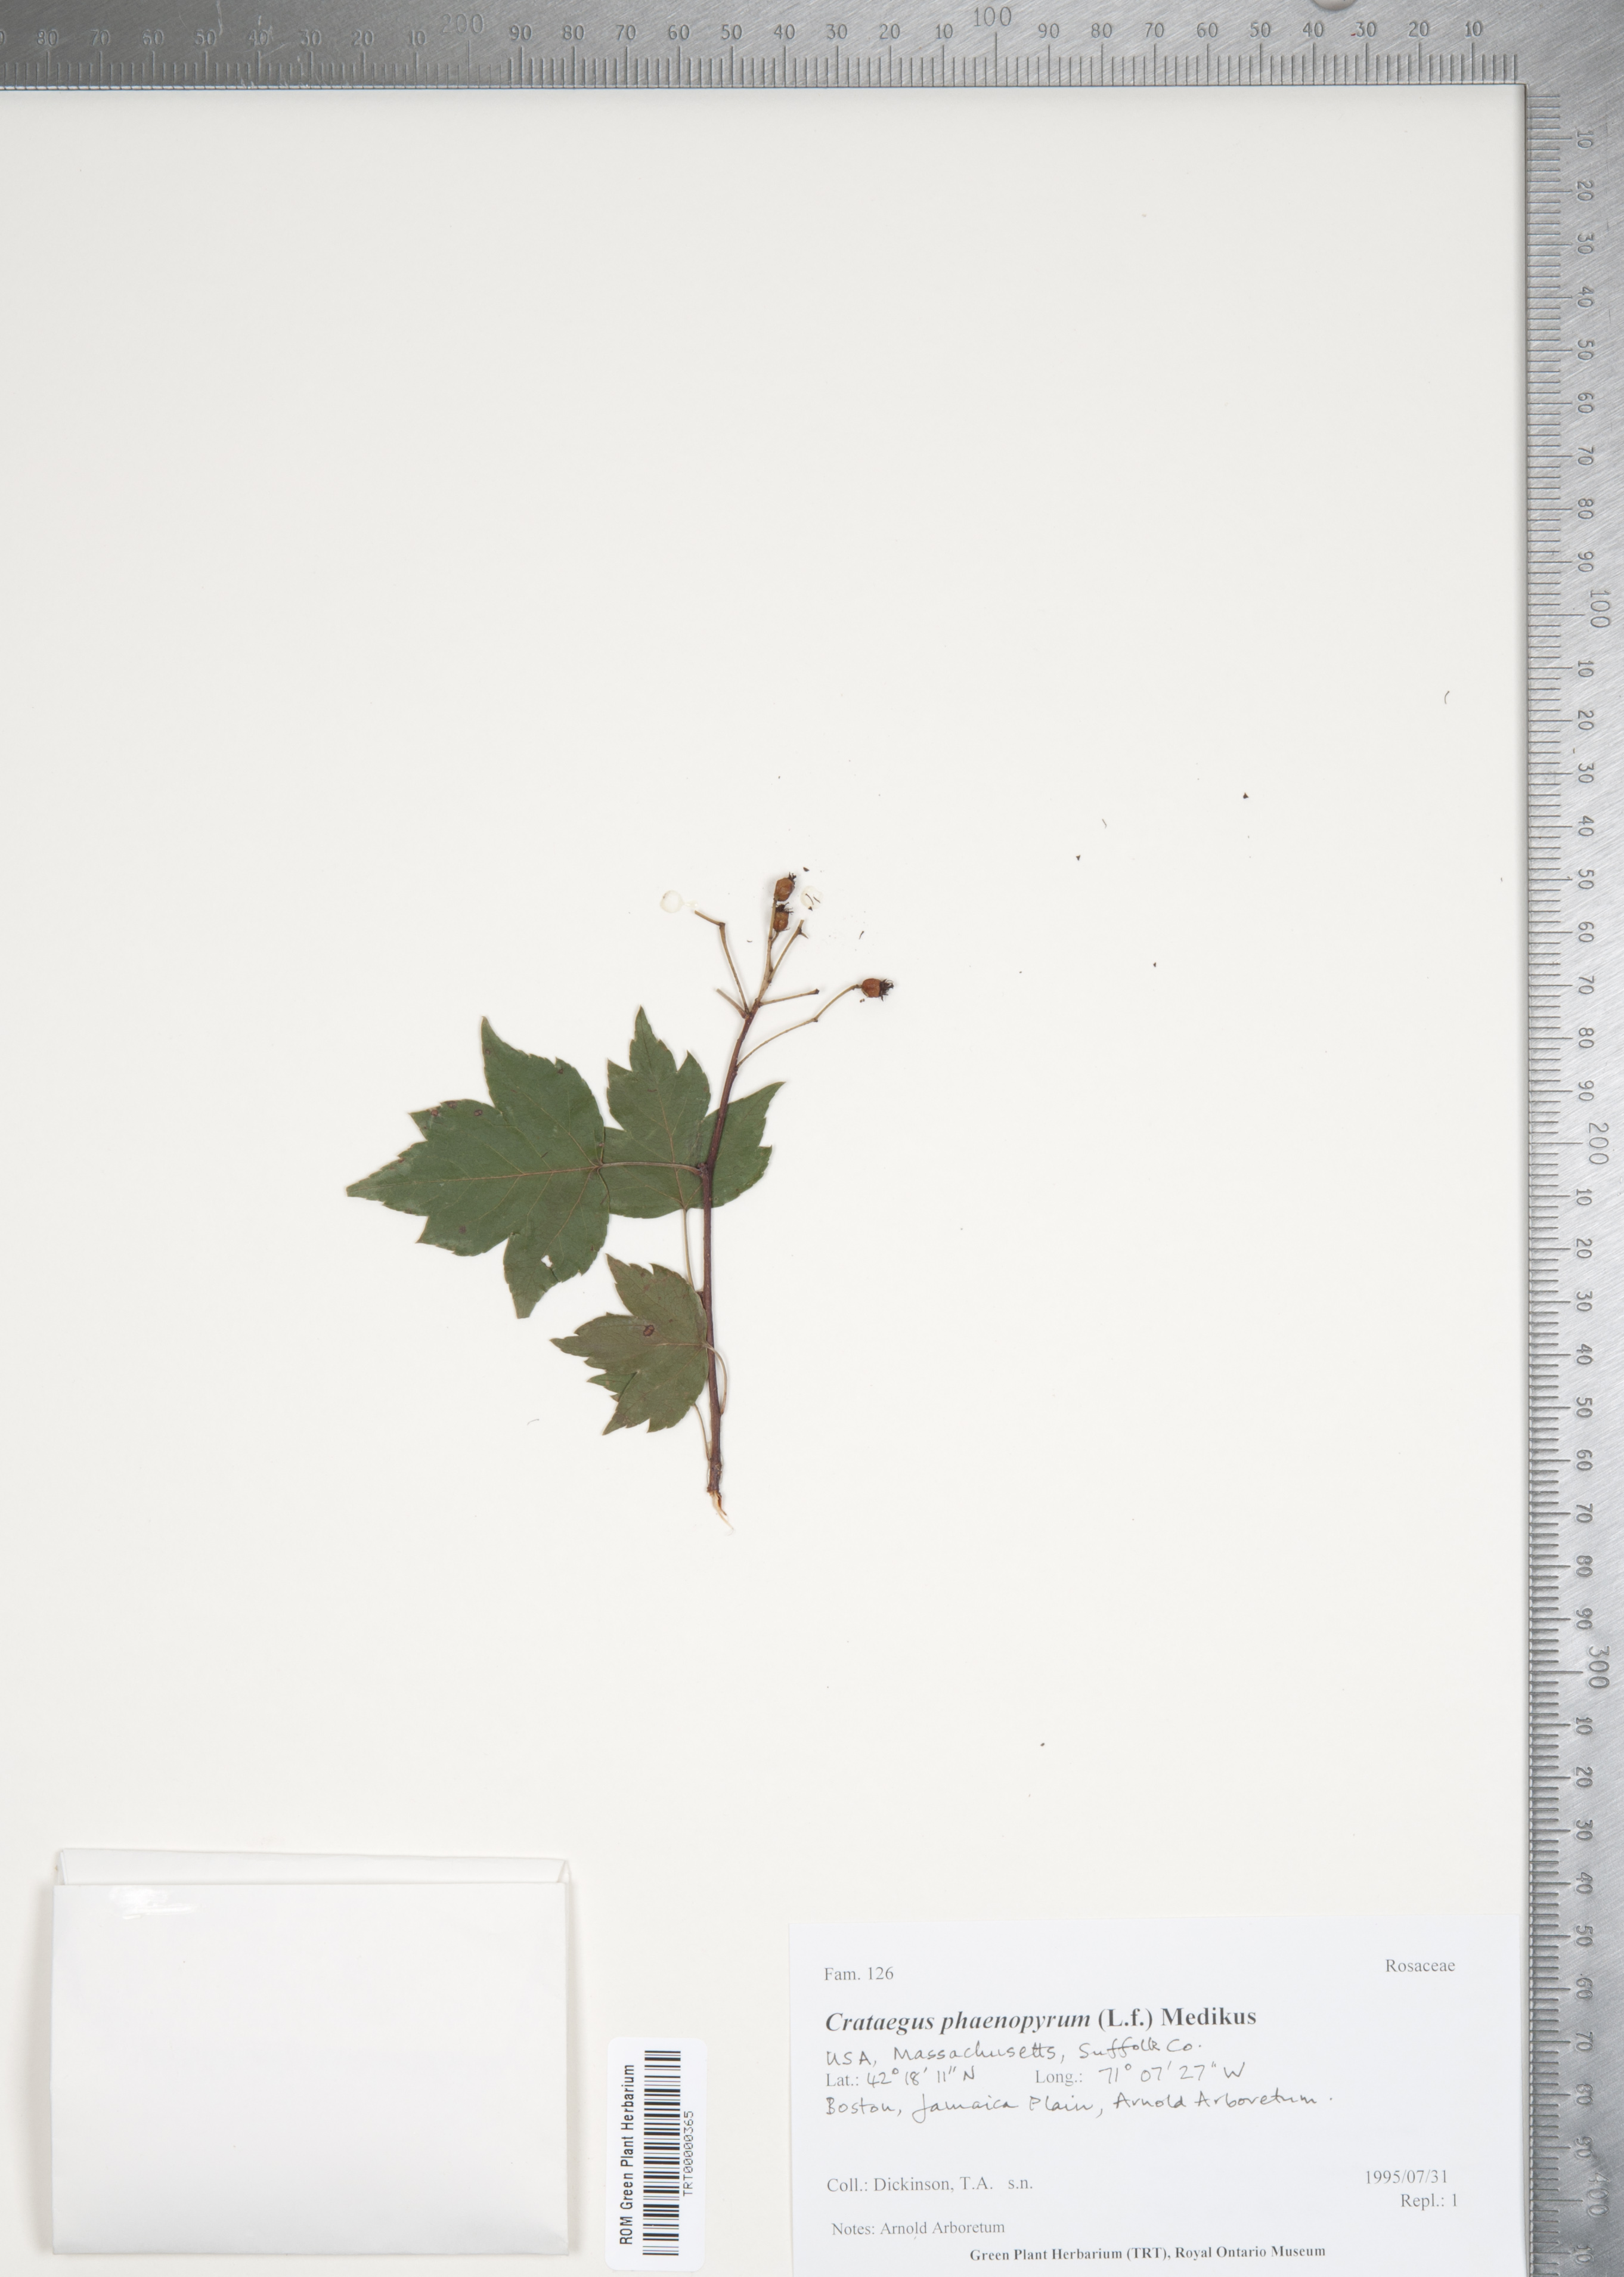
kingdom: Plantae
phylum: Tracheophyta
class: Magnoliopsida
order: Rosales
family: Rosaceae
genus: Crataegus
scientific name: Crataegus phaenopyrum
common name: Washington hawthorn
